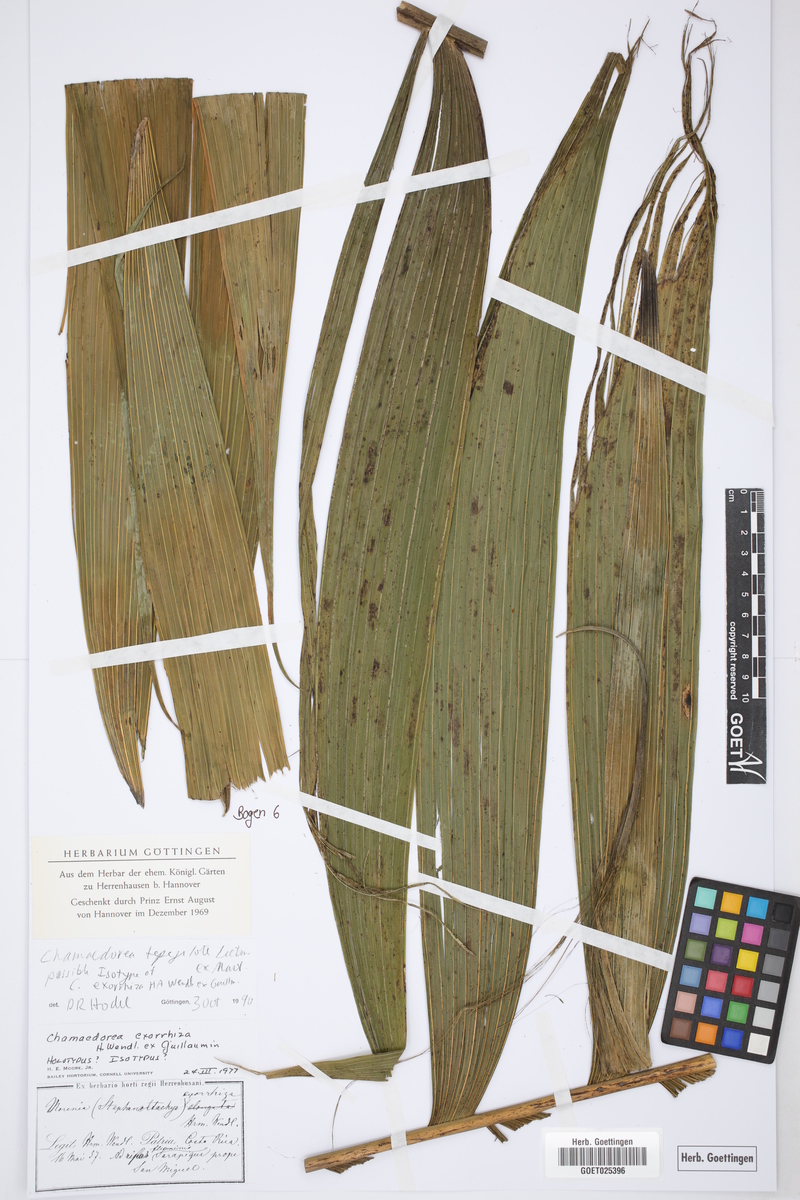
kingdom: Plantae
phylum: Tracheophyta
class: Liliopsida
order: Arecales
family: Arecaceae
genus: Chamaedorea
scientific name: Chamaedorea tepejilote
